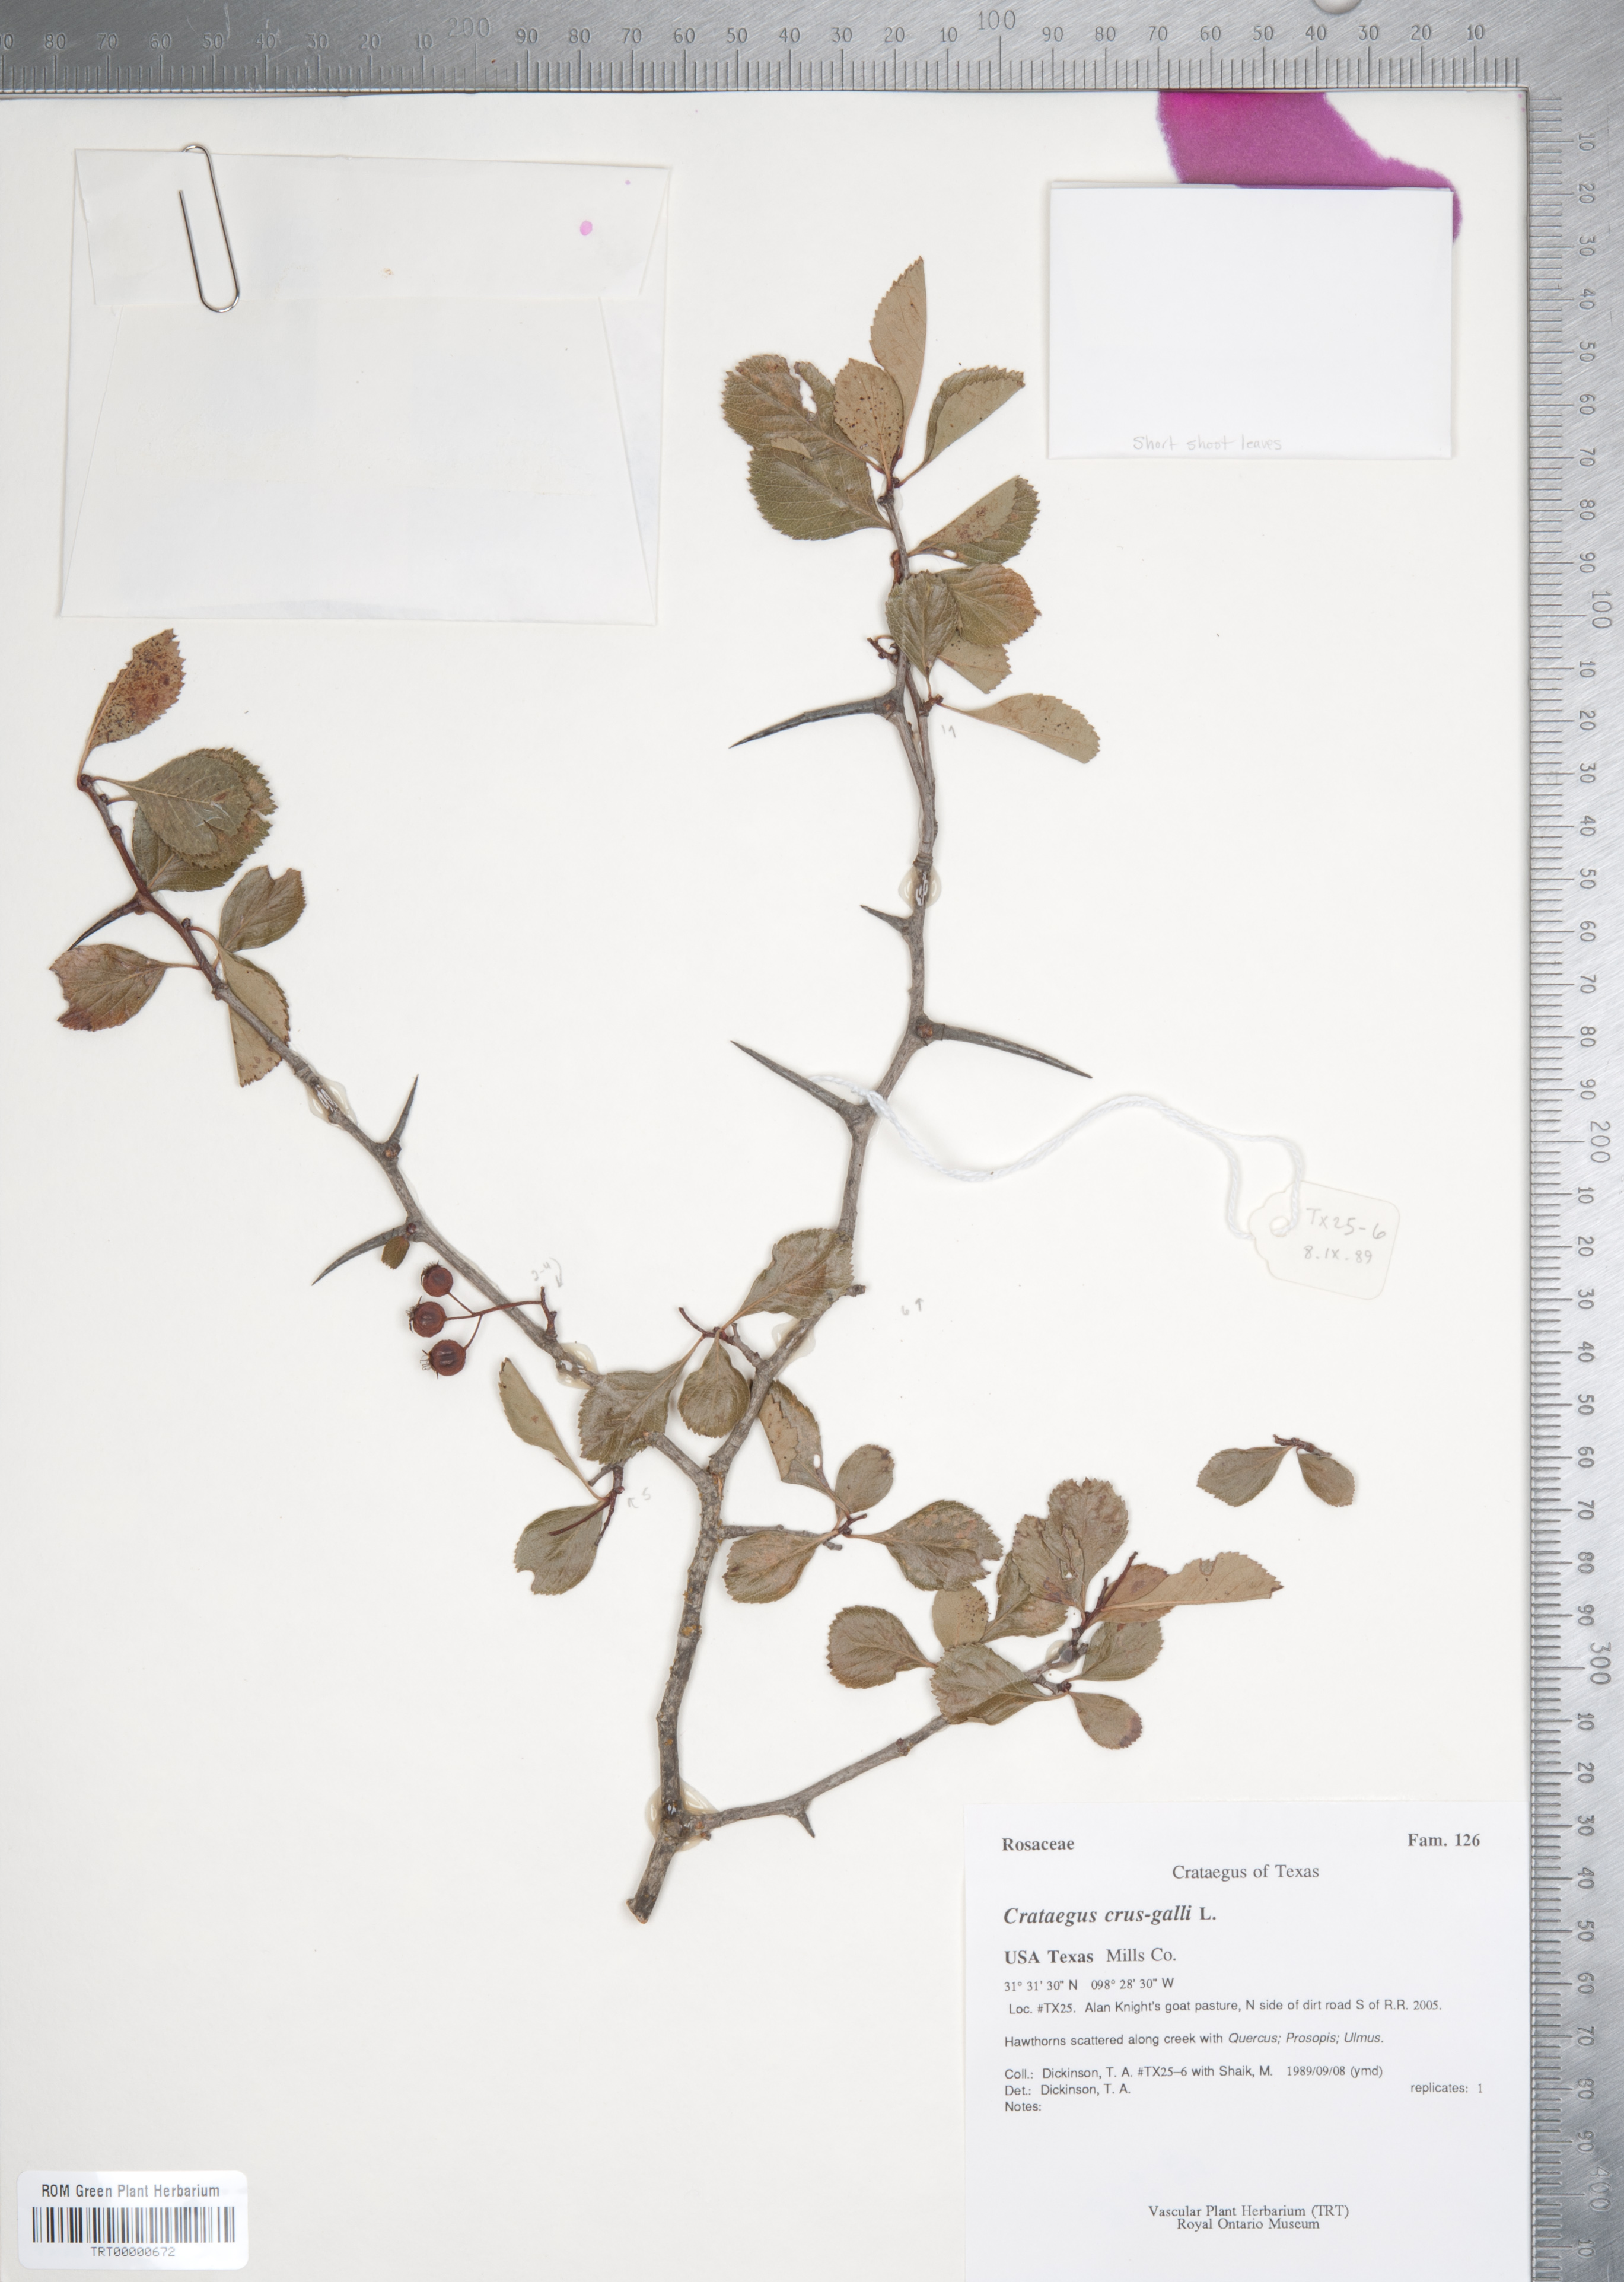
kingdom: Plantae
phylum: Tracheophyta
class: Magnoliopsida
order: Rosales
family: Rosaceae
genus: Crataegus
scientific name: Crataegus crus-galli
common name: Cockspurthorn
